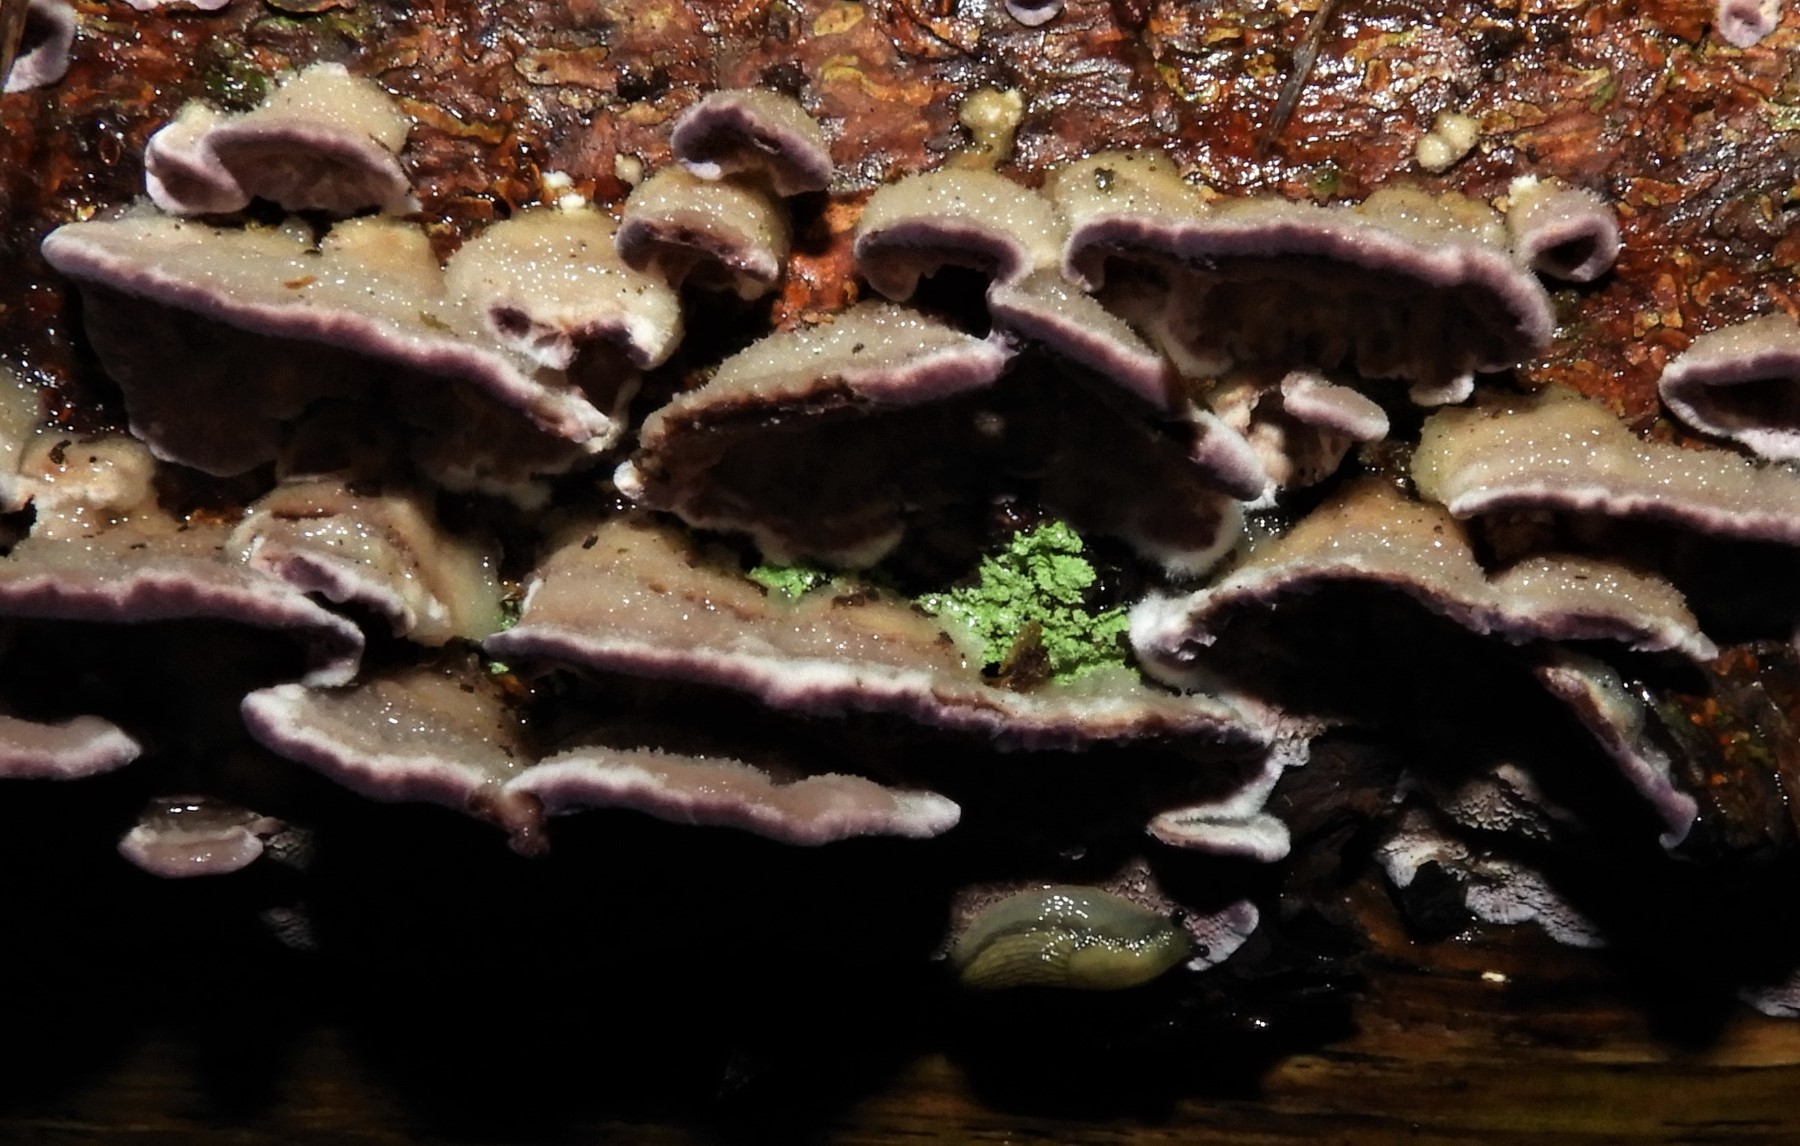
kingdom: Fungi
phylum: Basidiomycota
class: Agaricomycetes
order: Hymenochaetales
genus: Trichaptum
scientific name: Trichaptum abietinum
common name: almindelig violporesvamp
